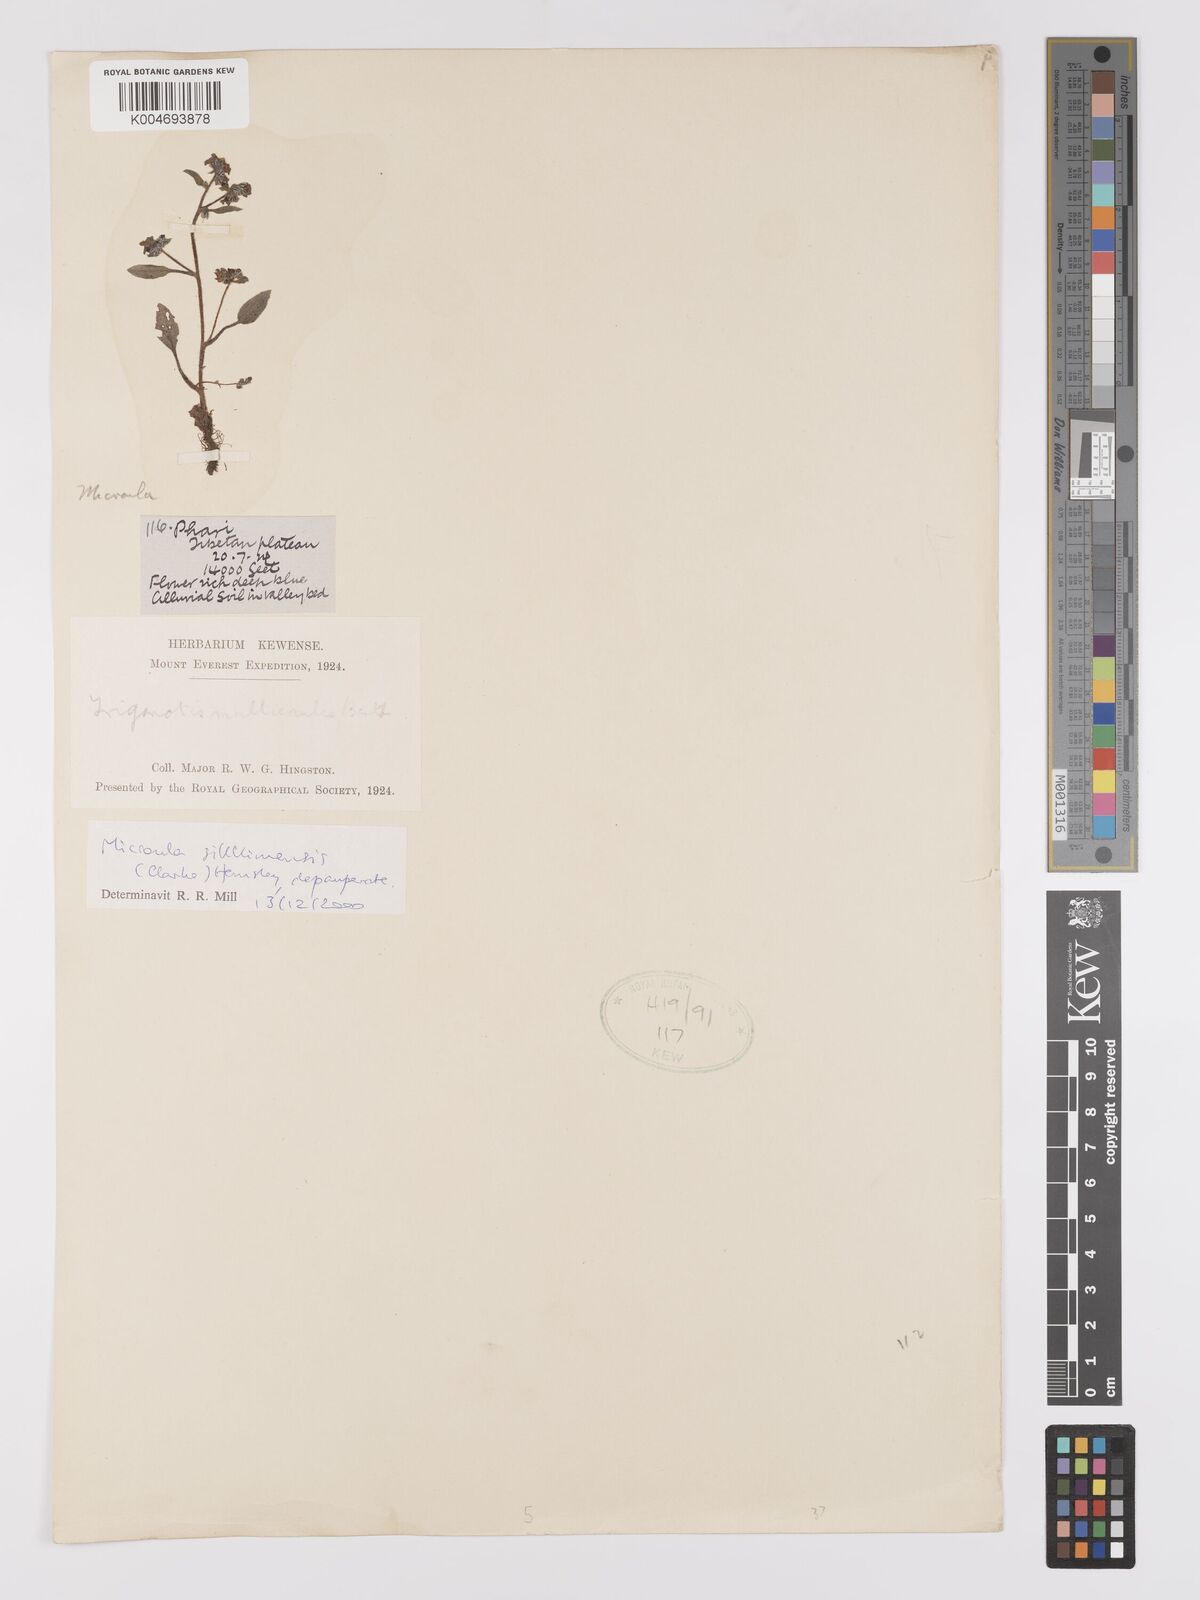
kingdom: Plantae
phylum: Tracheophyta
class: Magnoliopsida
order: Boraginales
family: Boraginaceae
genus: Microula
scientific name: Microula sikkimensis
